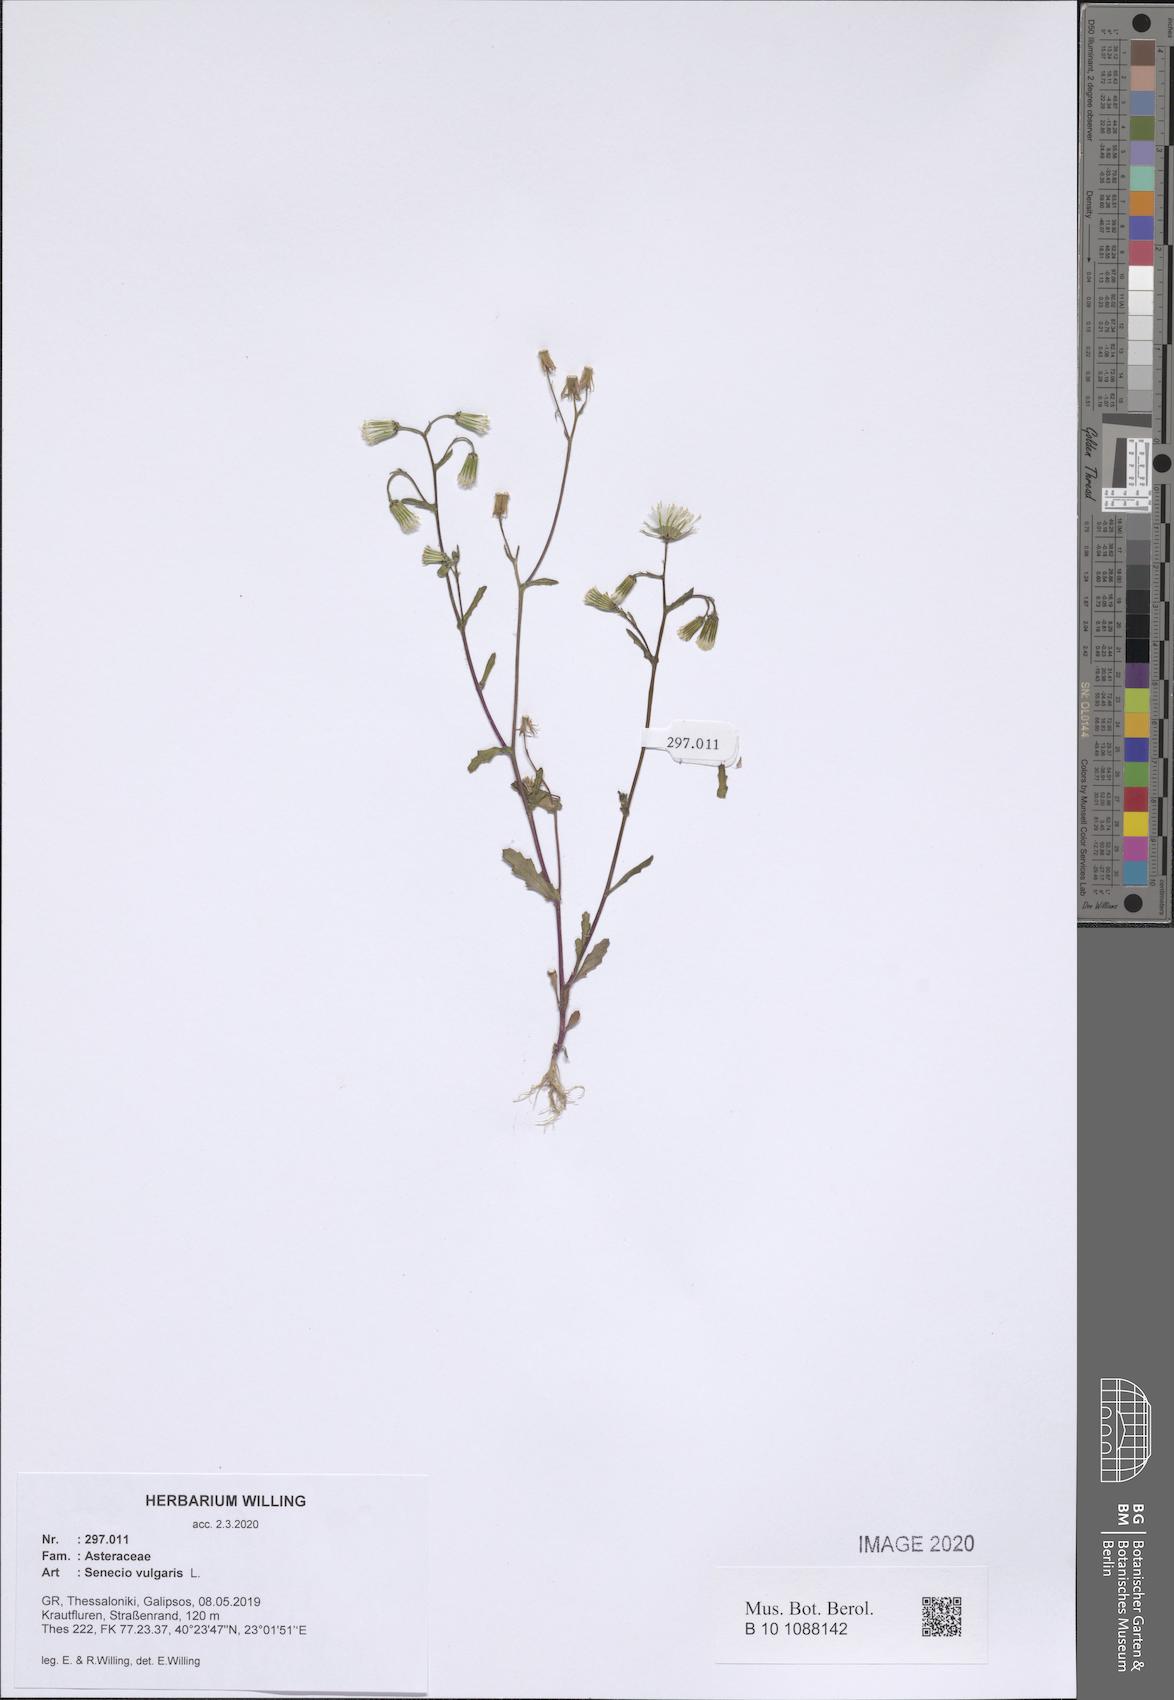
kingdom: Plantae
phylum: Tracheophyta
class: Magnoliopsida
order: Asterales
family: Asteraceae
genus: Senecio
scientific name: Senecio vulgaris
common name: Old-man-in-the-spring
